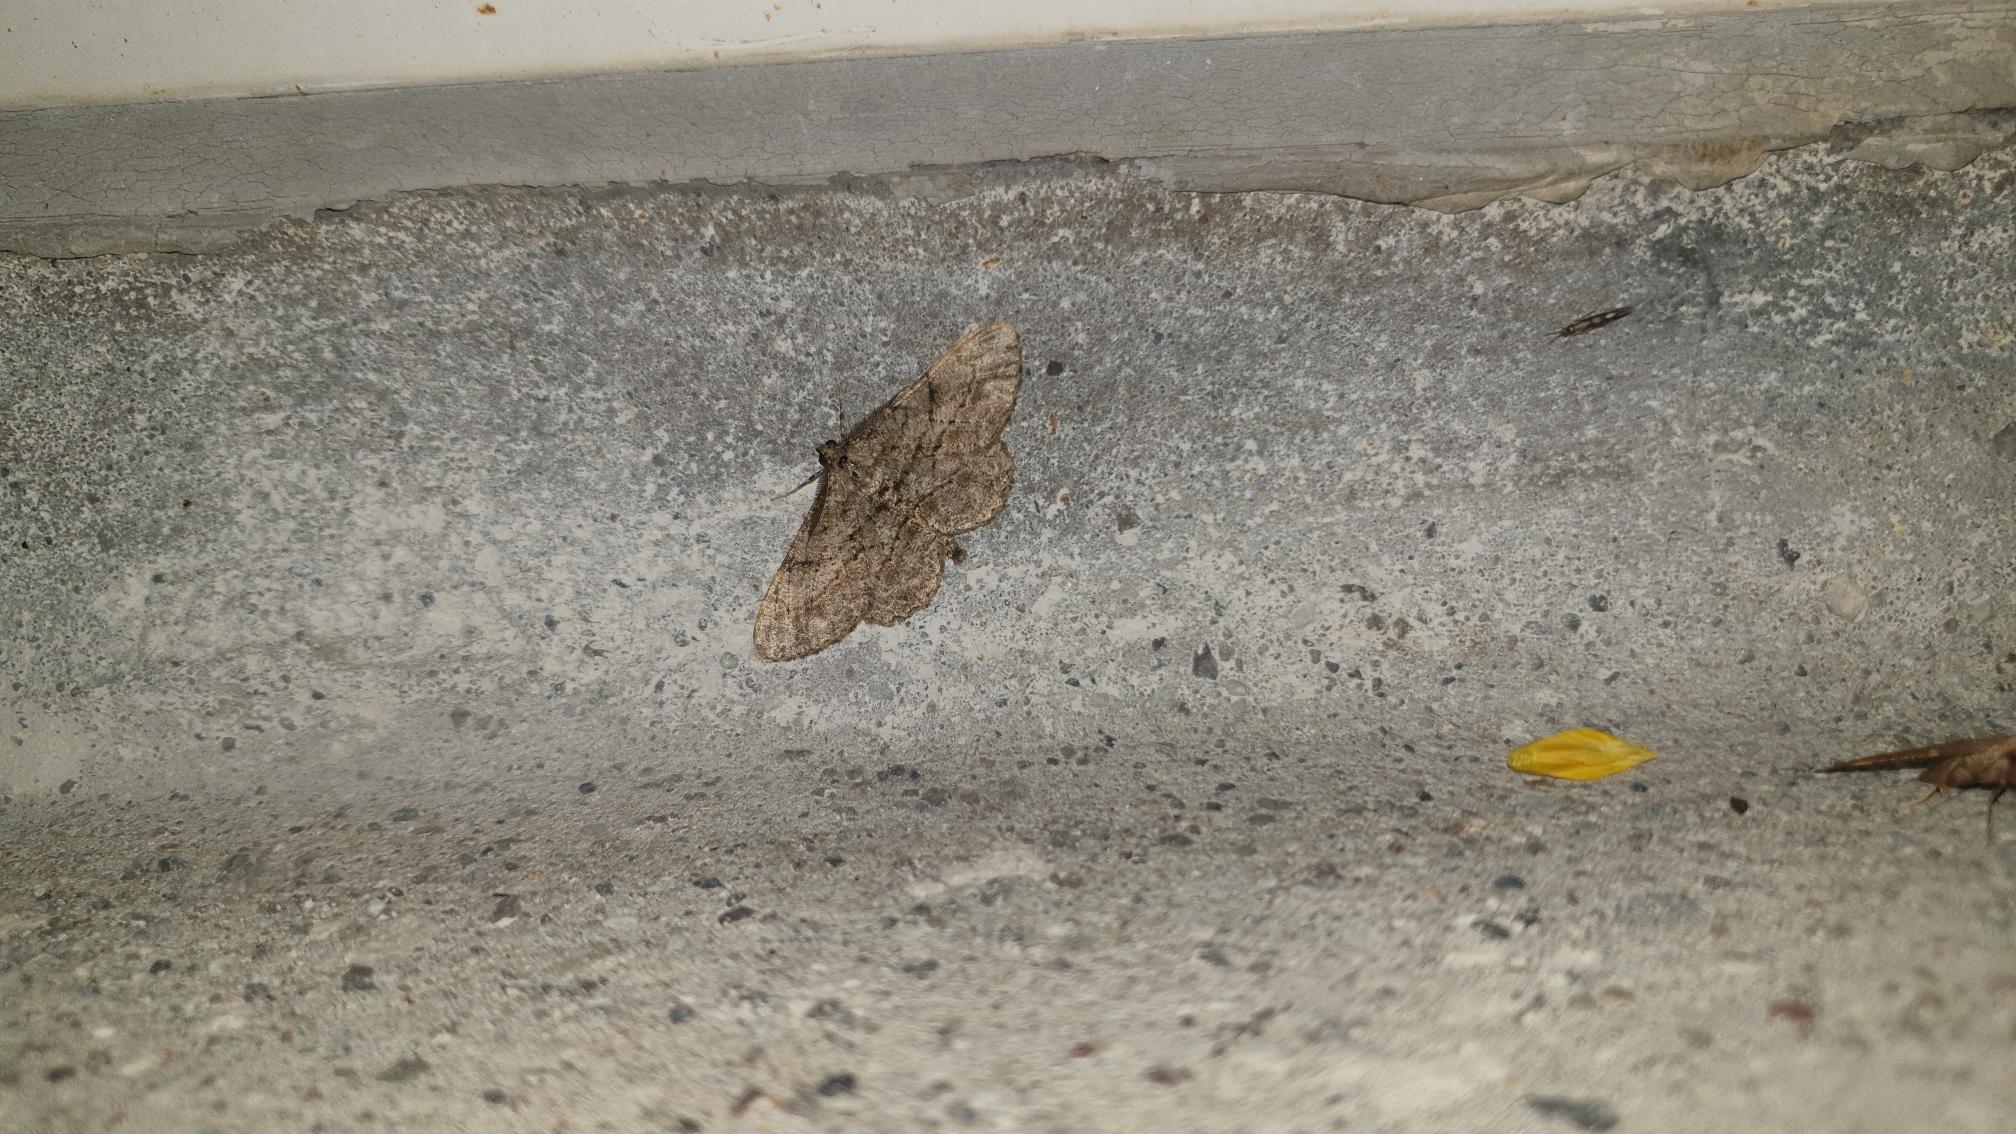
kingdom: Animalia
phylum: Arthropoda
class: Insecta
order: Lepidoptera
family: Geometridae
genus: Peribatodes
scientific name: Peribatodes rhomboidaria
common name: Frugttræ-barkmåler
